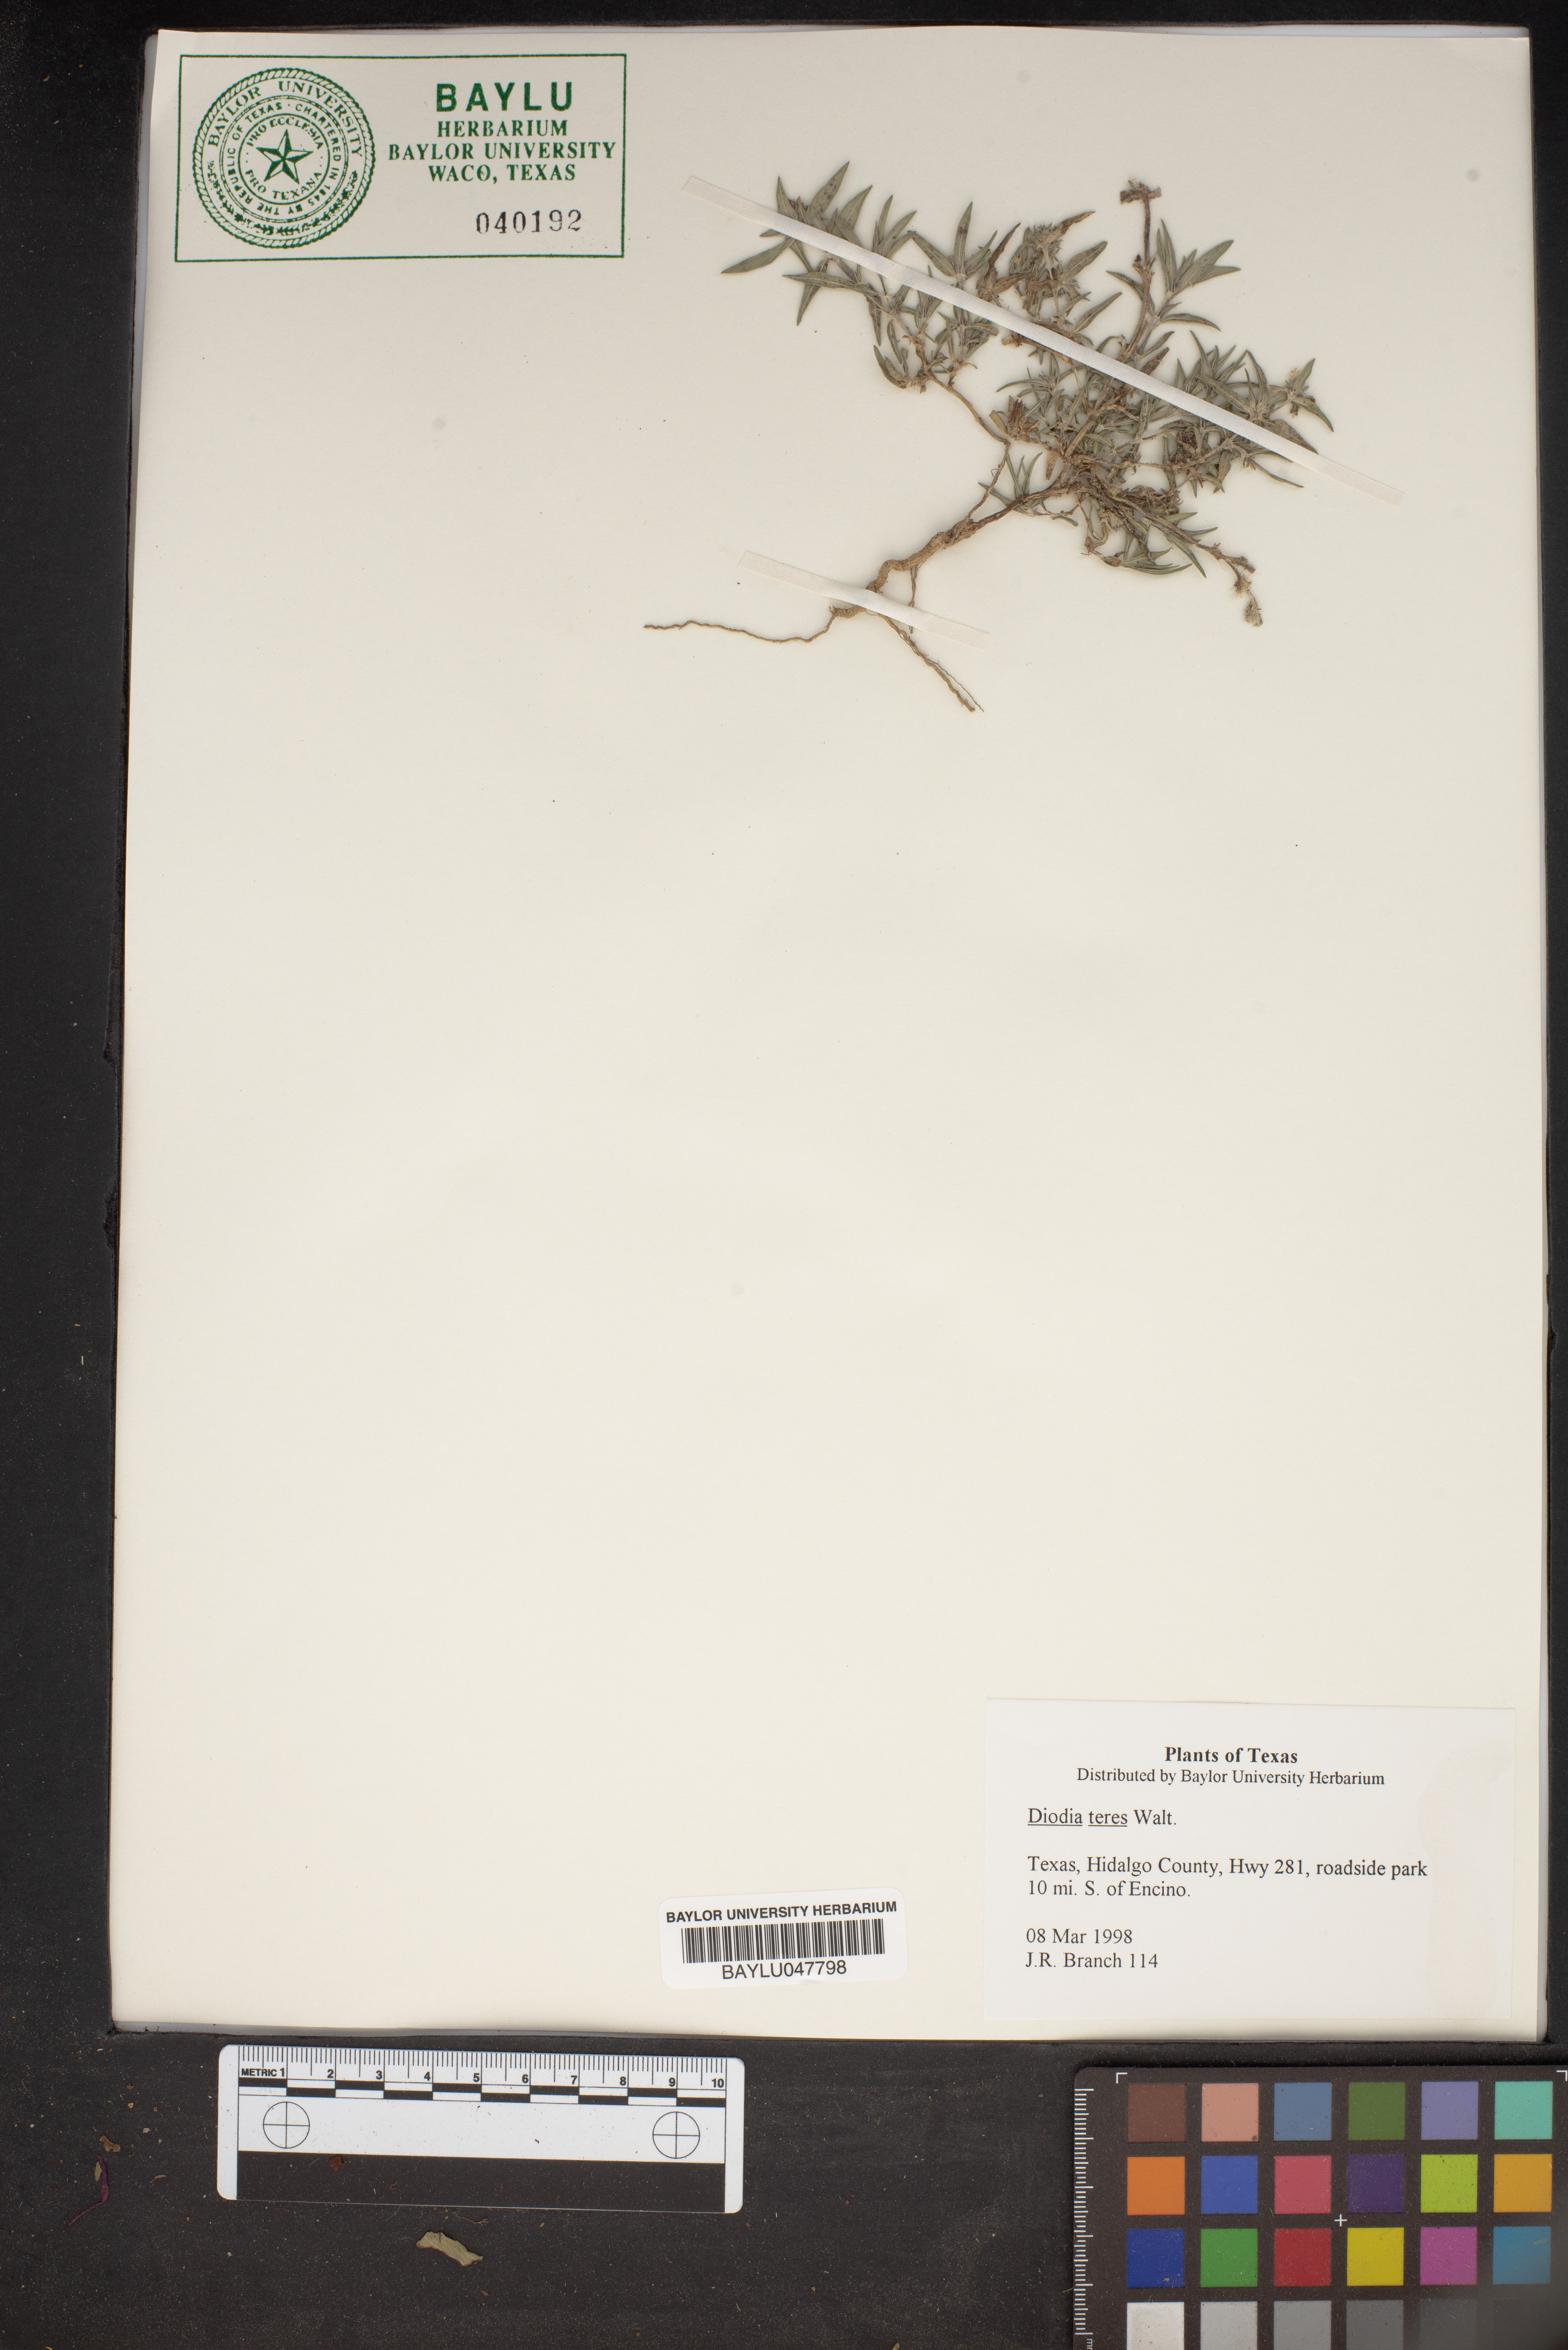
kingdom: Plantae
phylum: Tracheophyta
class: Magnoliopsida
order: Gentianales
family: Rubiaceae
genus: Hexasepalum
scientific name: Hexasepalum teres
